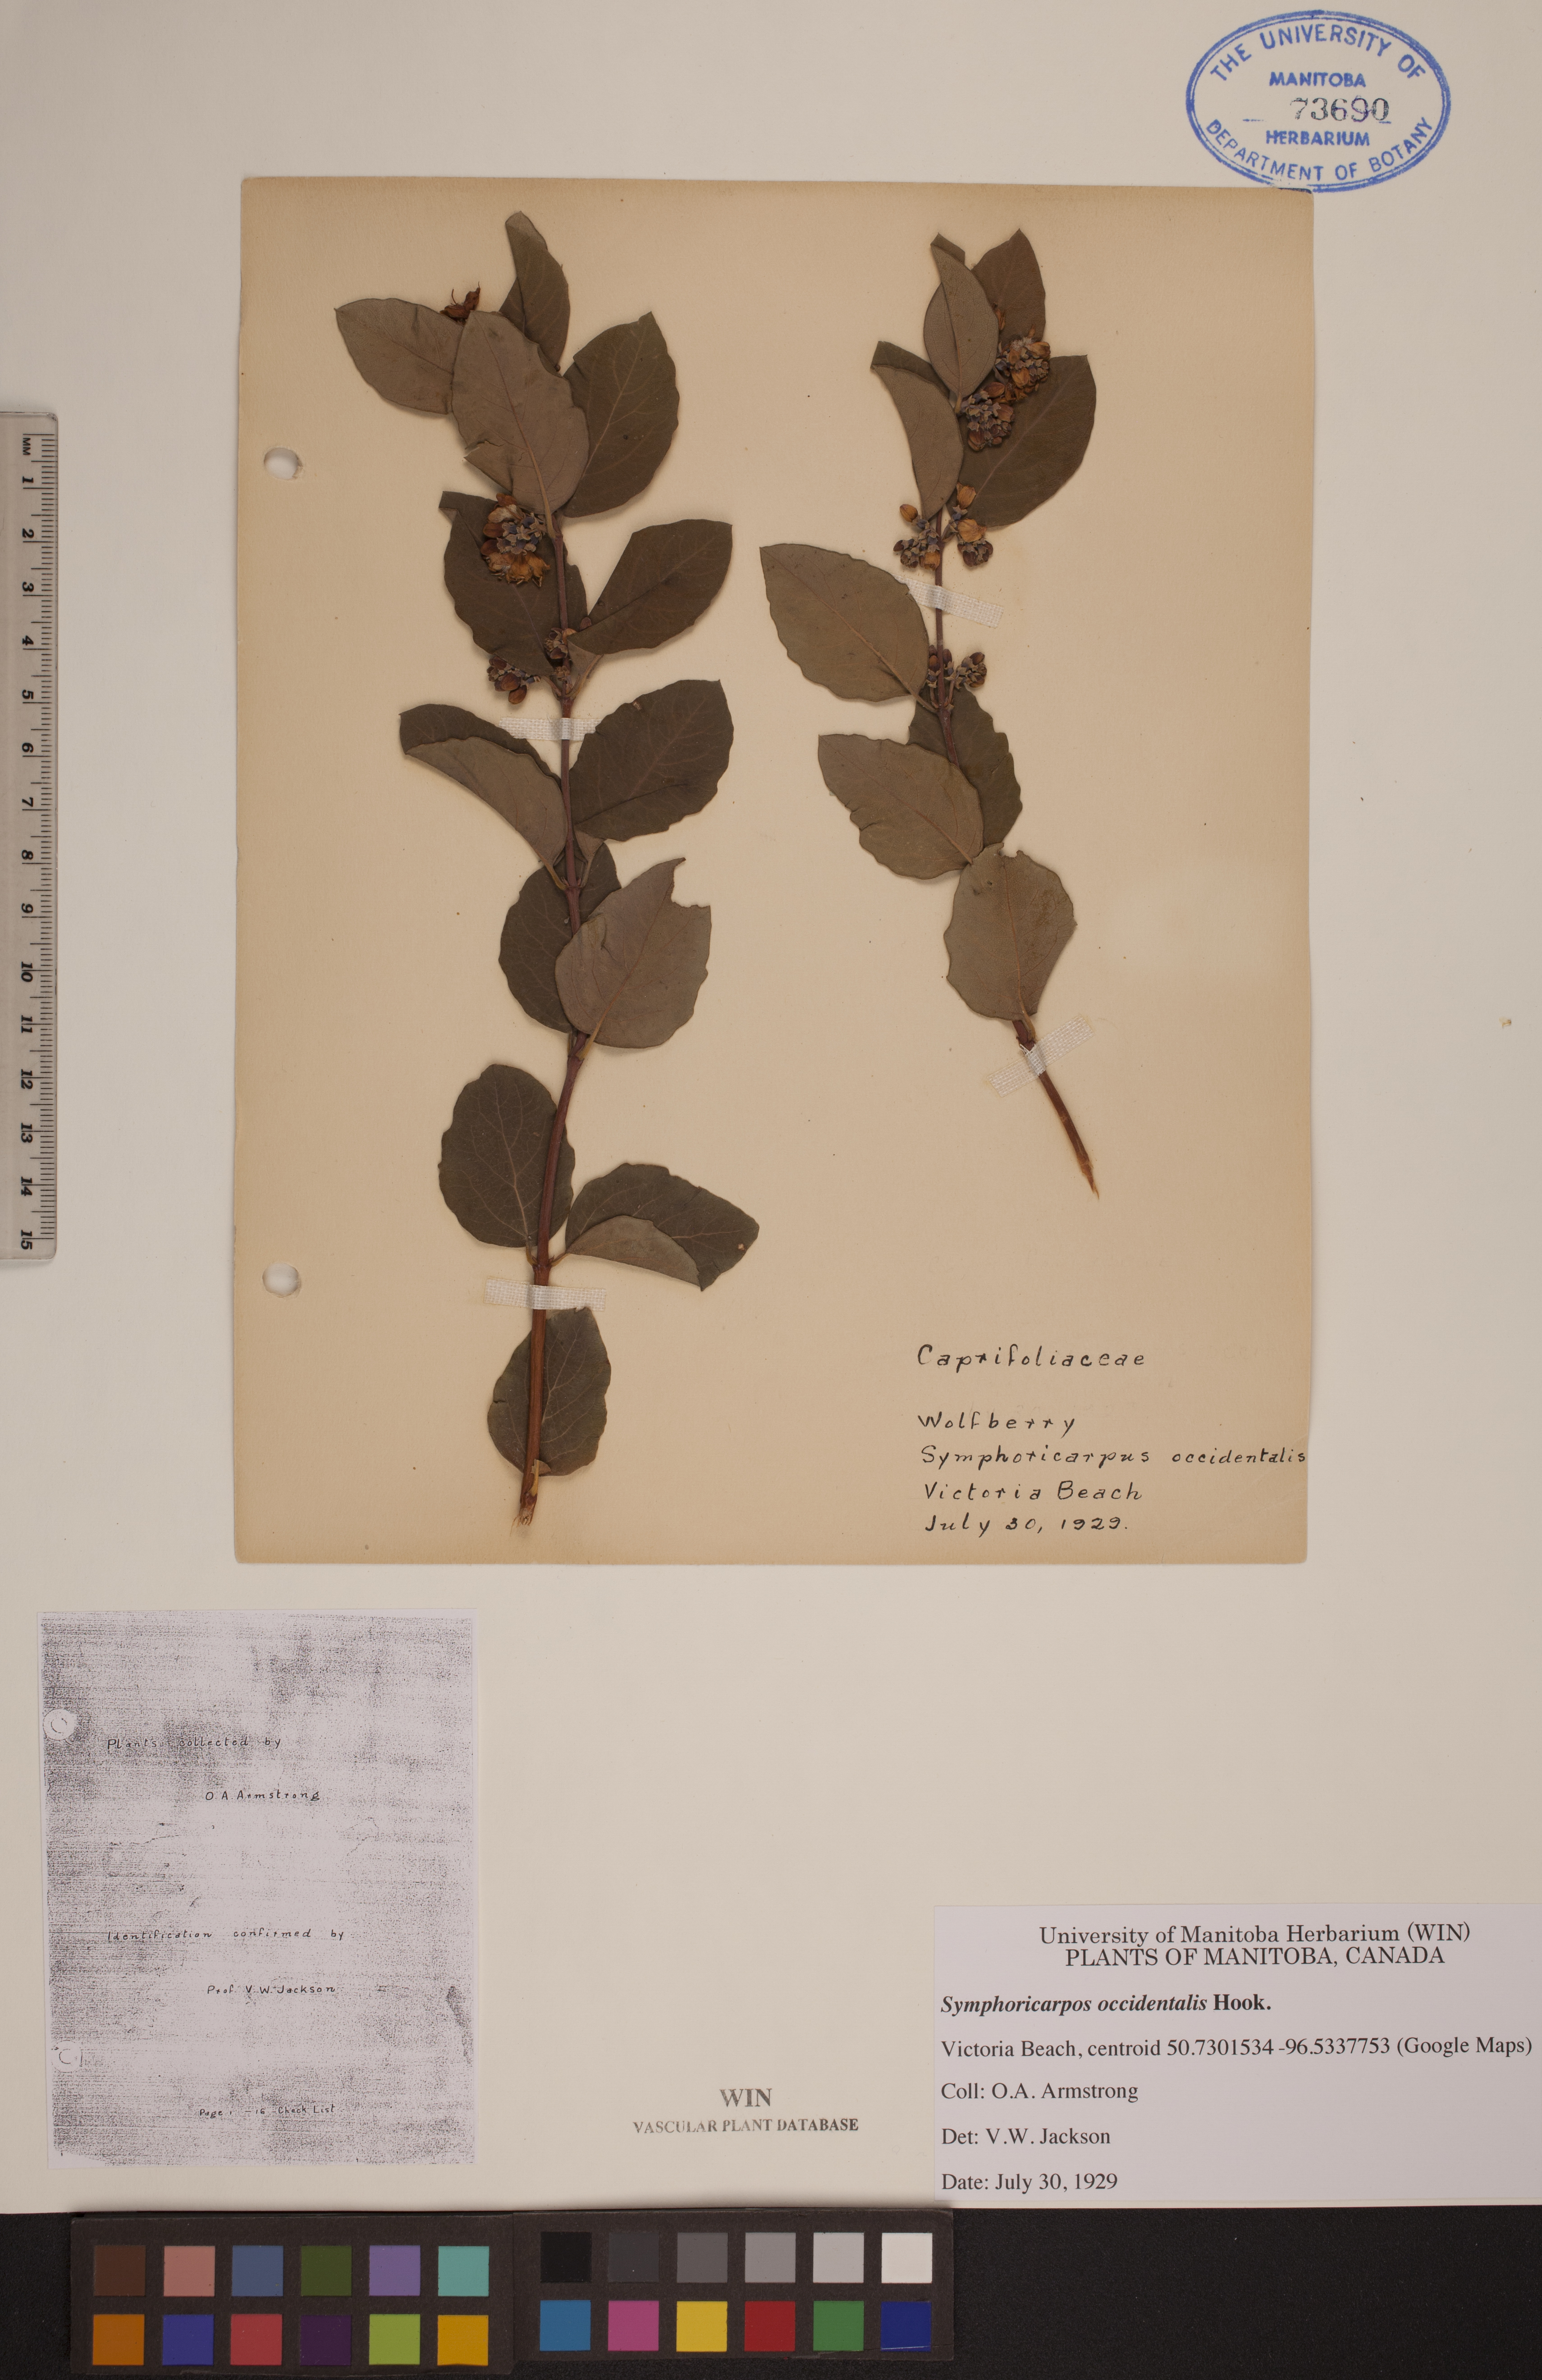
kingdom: Plantae
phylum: Tracheophyta
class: Magnoliopsida
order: Dipsacales
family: Caprifoliaceae
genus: Symphoricarpos
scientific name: Symphoricarpos occidentalis
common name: Wolfberry
